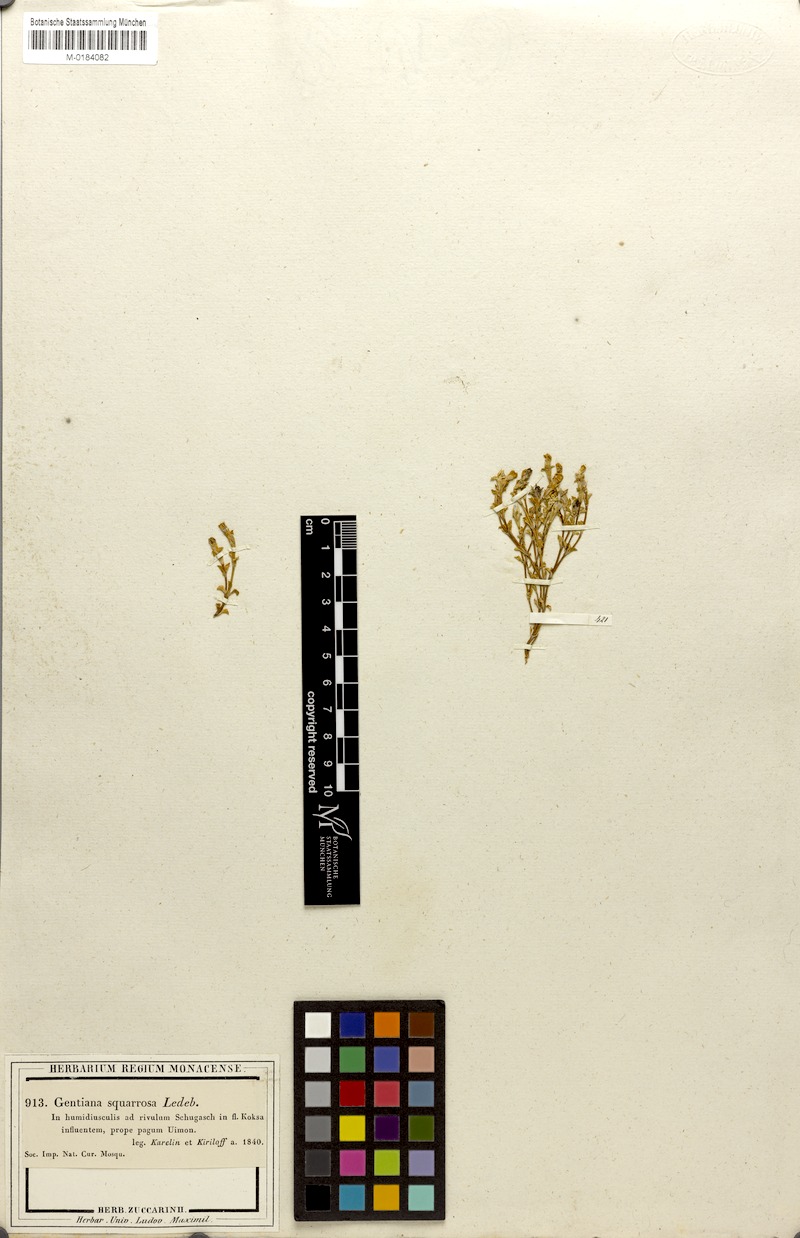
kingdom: Plantae
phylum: Tracheophyta
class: Magnoliopsida
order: Gentianales
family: Gentianaceae
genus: Gentiana
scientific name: Gentiana squarrosa
